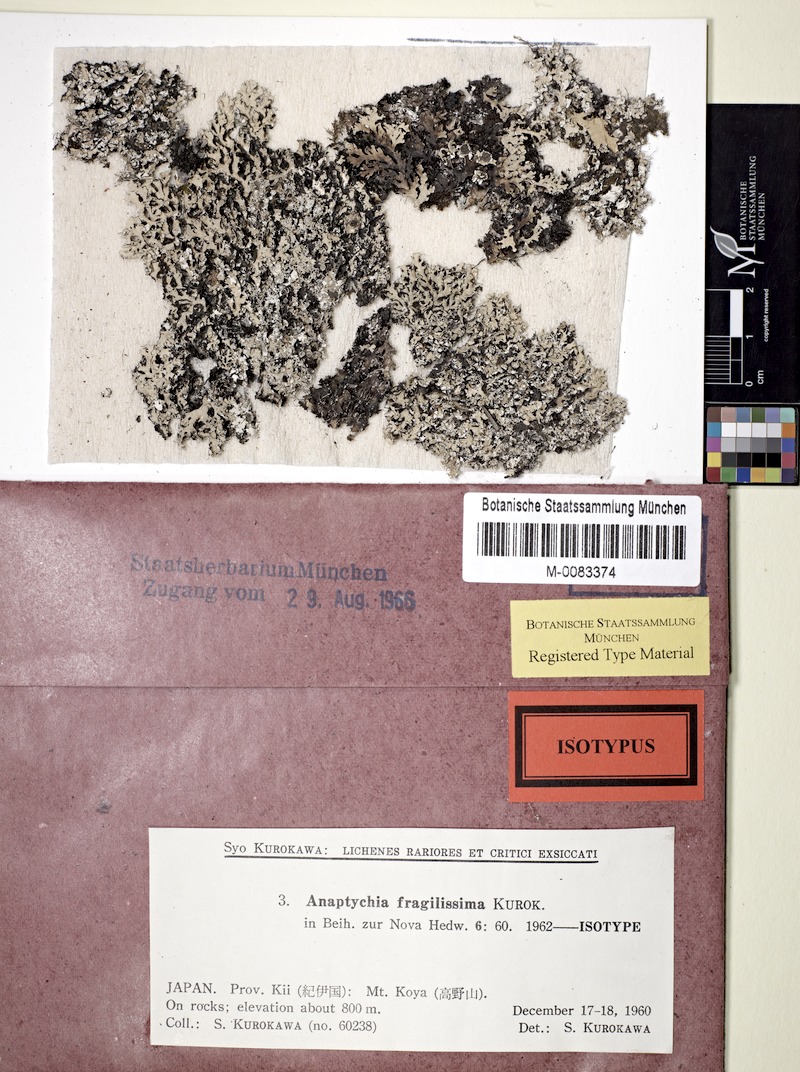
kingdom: Fungi
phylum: Ascomycota
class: Lecanoromycetes
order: Caliciales
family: Physciaceae
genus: Polyblastidium
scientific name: Polyblastidium fragilissimum
